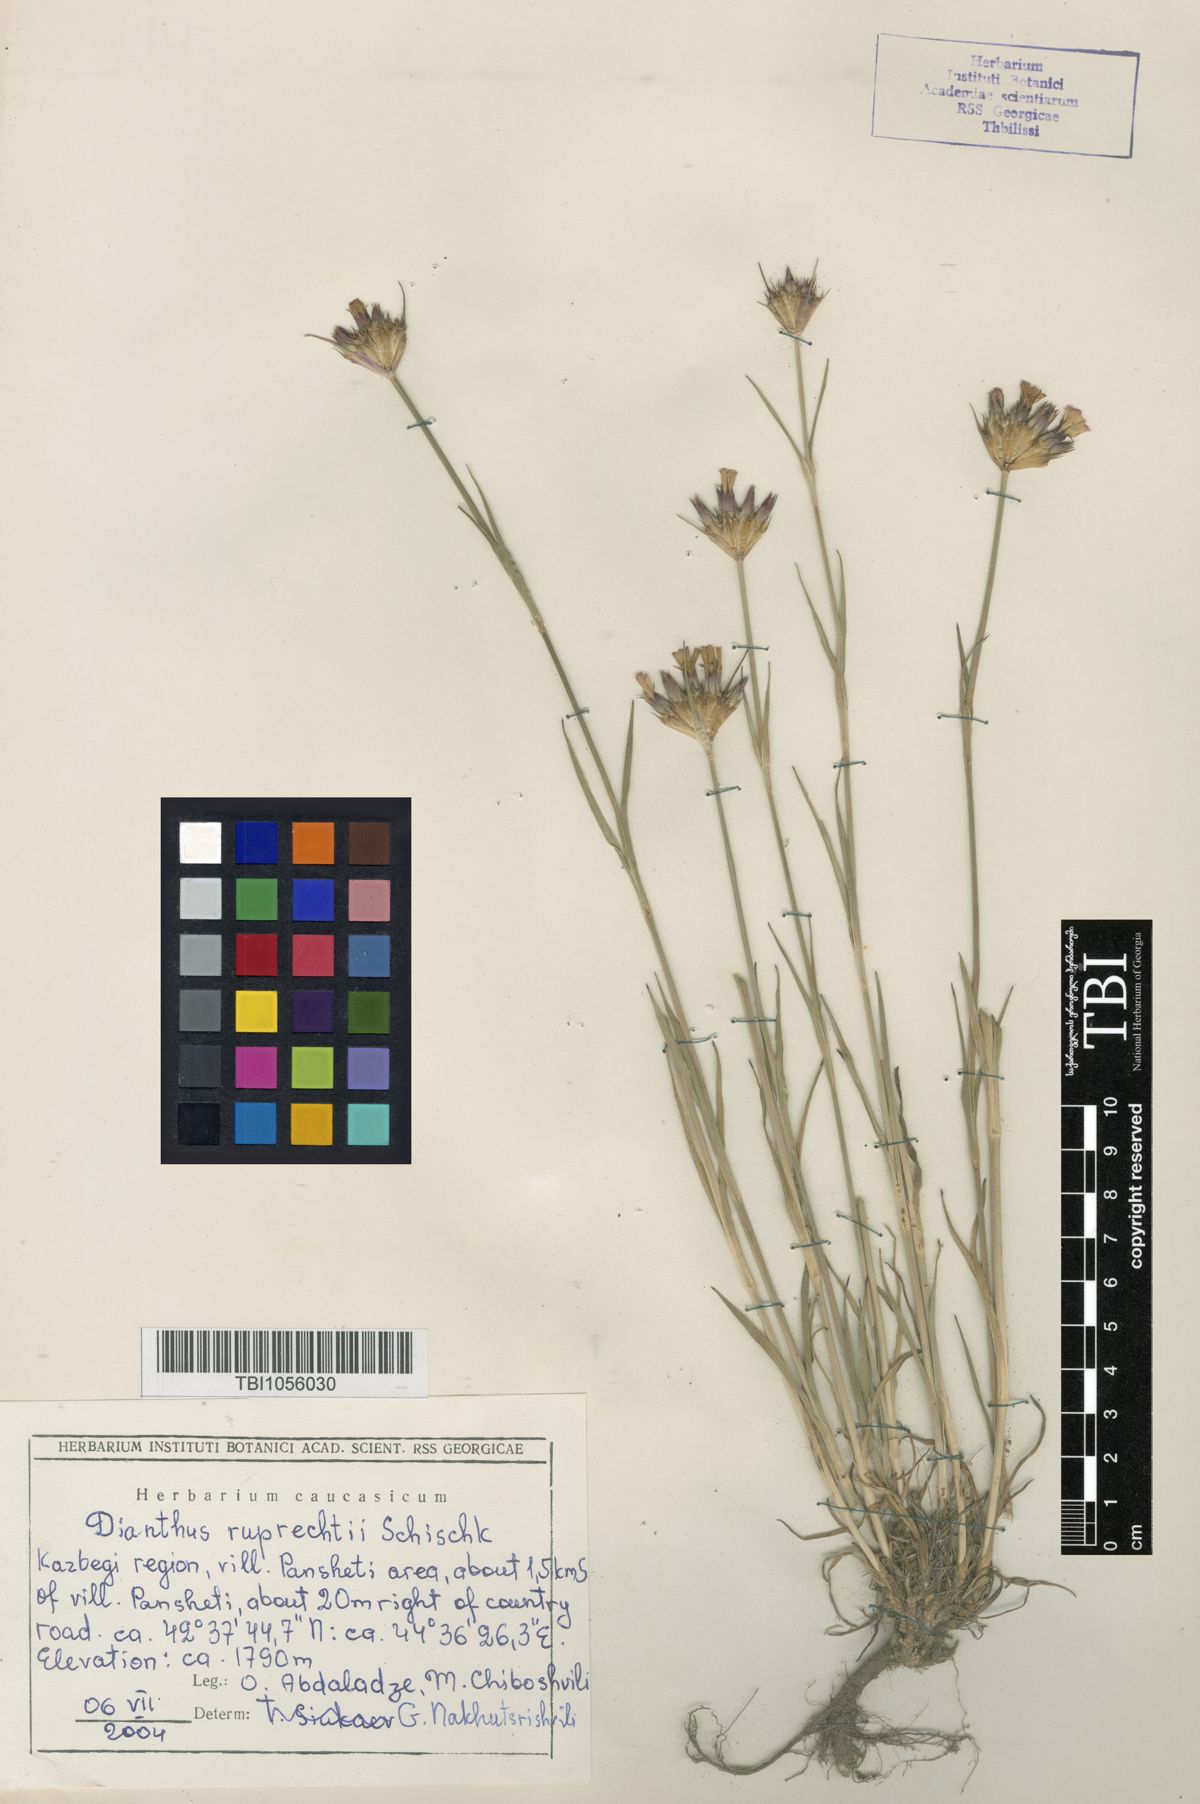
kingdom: Plantae
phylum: Tracheophyta
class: Magnoliopsida
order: Caryophyllales
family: Caryophyllaceae
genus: Dianthus
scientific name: Dianthus ruprechtii
